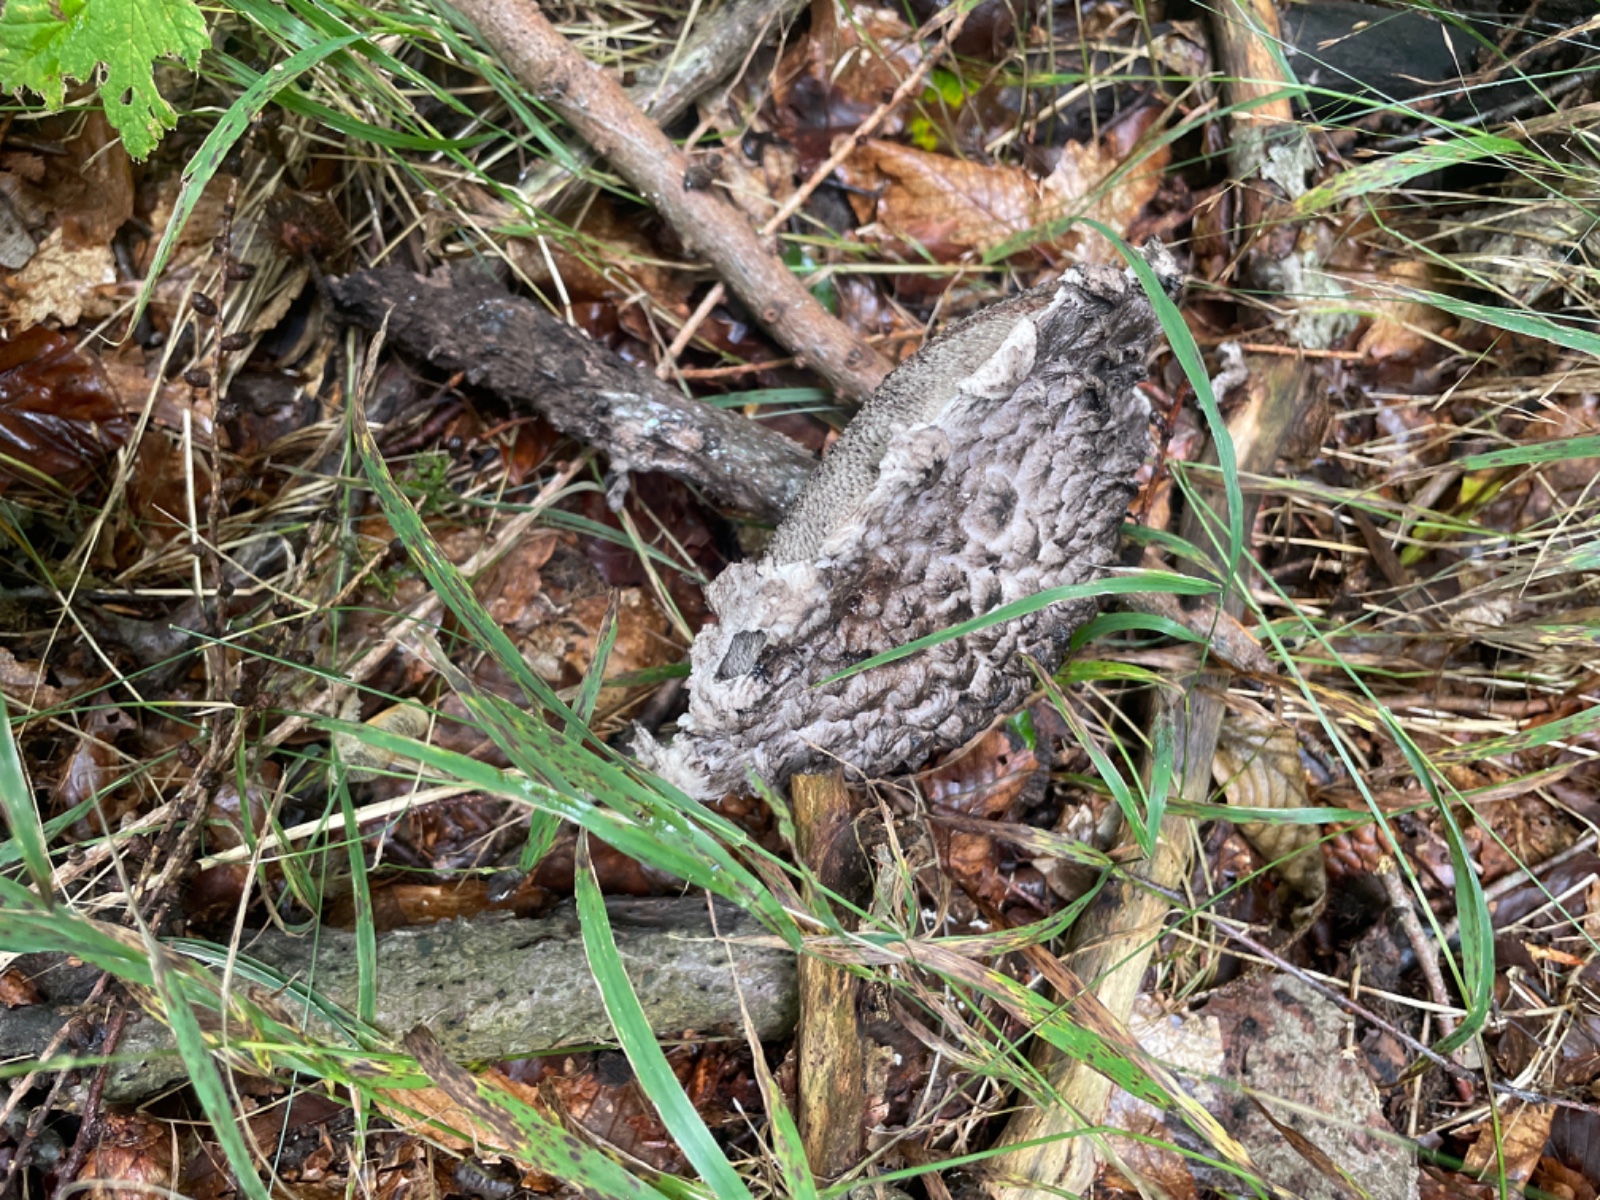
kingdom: Fungi
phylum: Basidiomycota
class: Agaricomycetes
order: Boletales
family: Boletaceae
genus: Strobilomyces
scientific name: Strobilomyces strobilaceus
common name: koglerørhat
